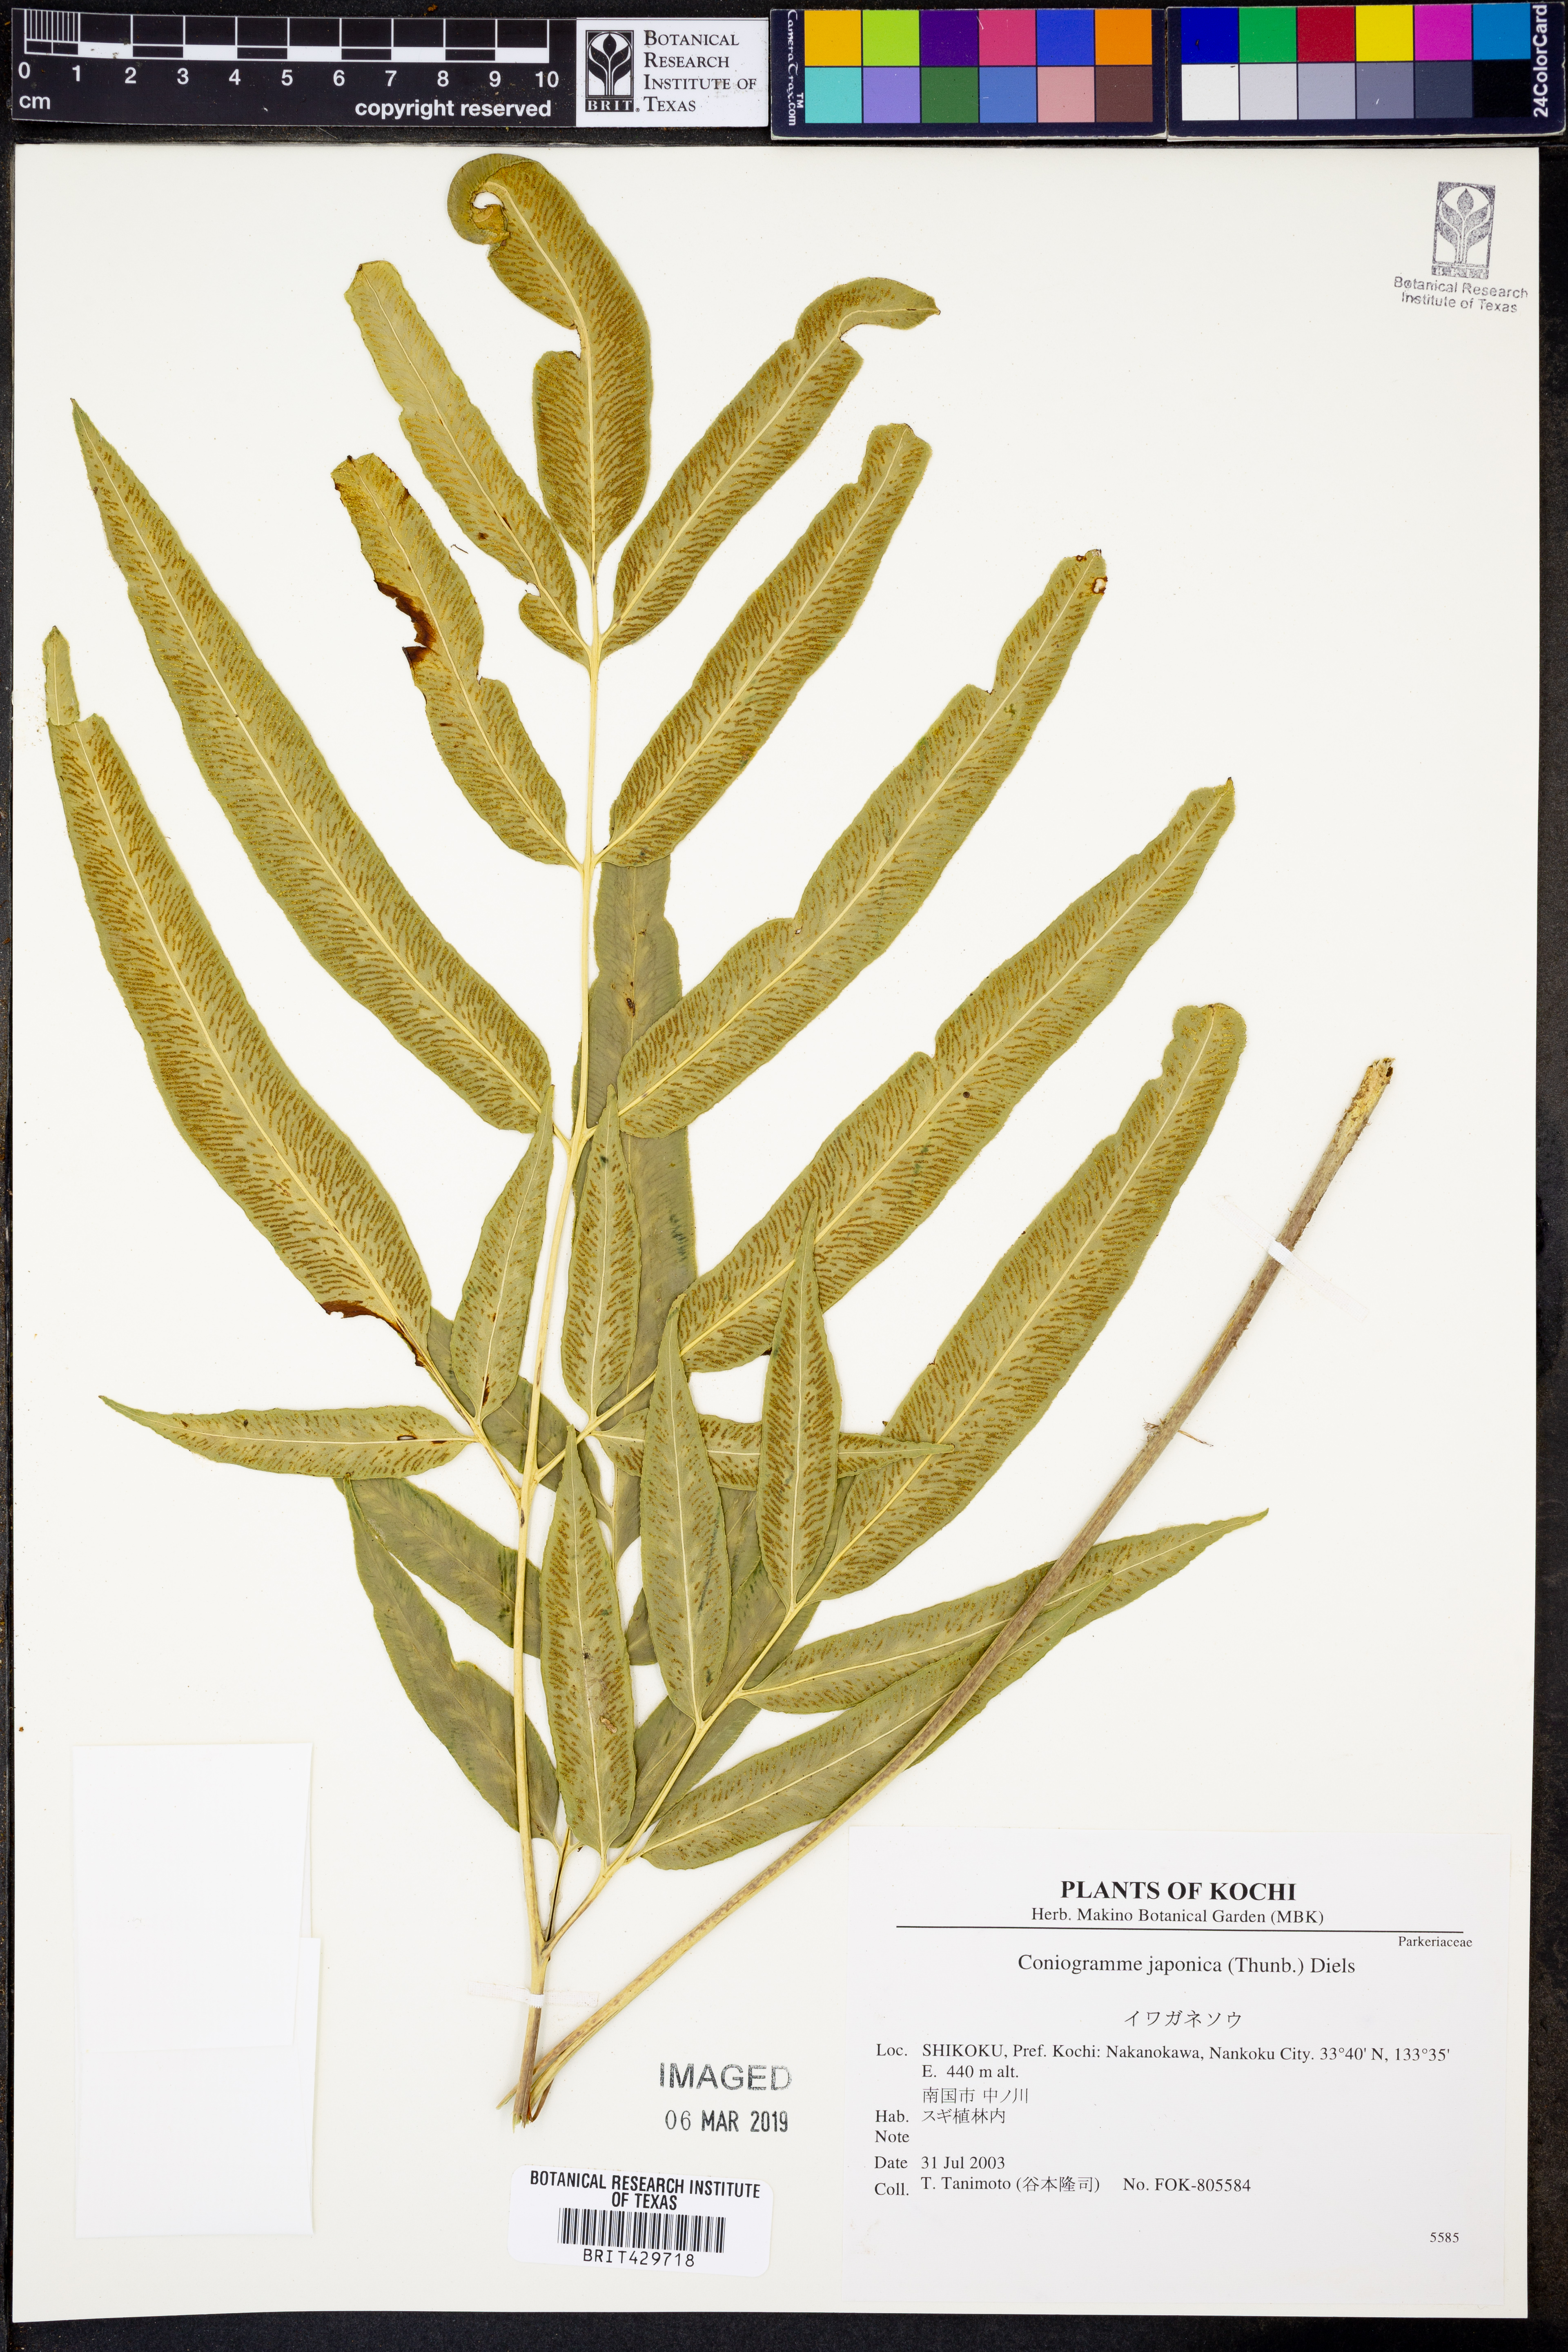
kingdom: Plantae
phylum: Tracheophyta
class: Polypodiopsida
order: Polypodiales
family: Pteridaceae
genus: Coniogramme
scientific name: Coniogramme japonica
